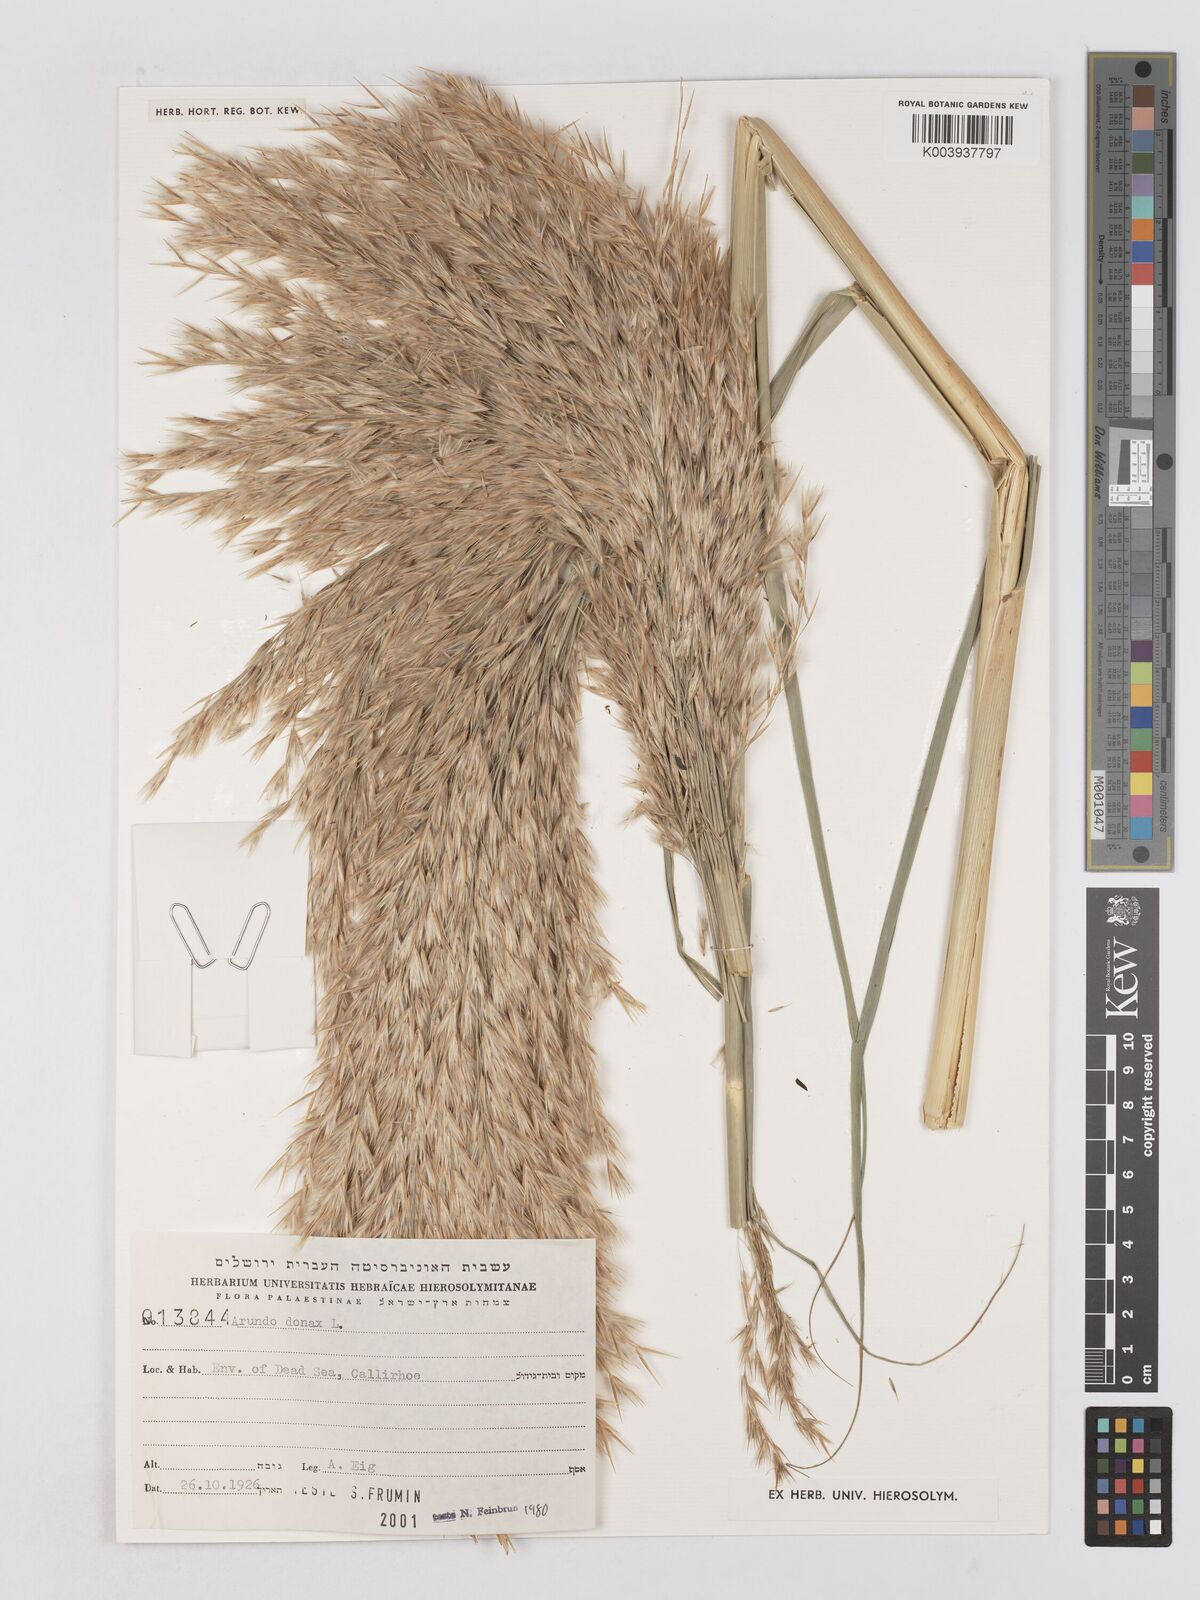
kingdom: Plantae
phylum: Tracheophyta
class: Liliopsida
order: Poales
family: Poaceae
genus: Arundo
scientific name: Arundo donax
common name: Giant reed
